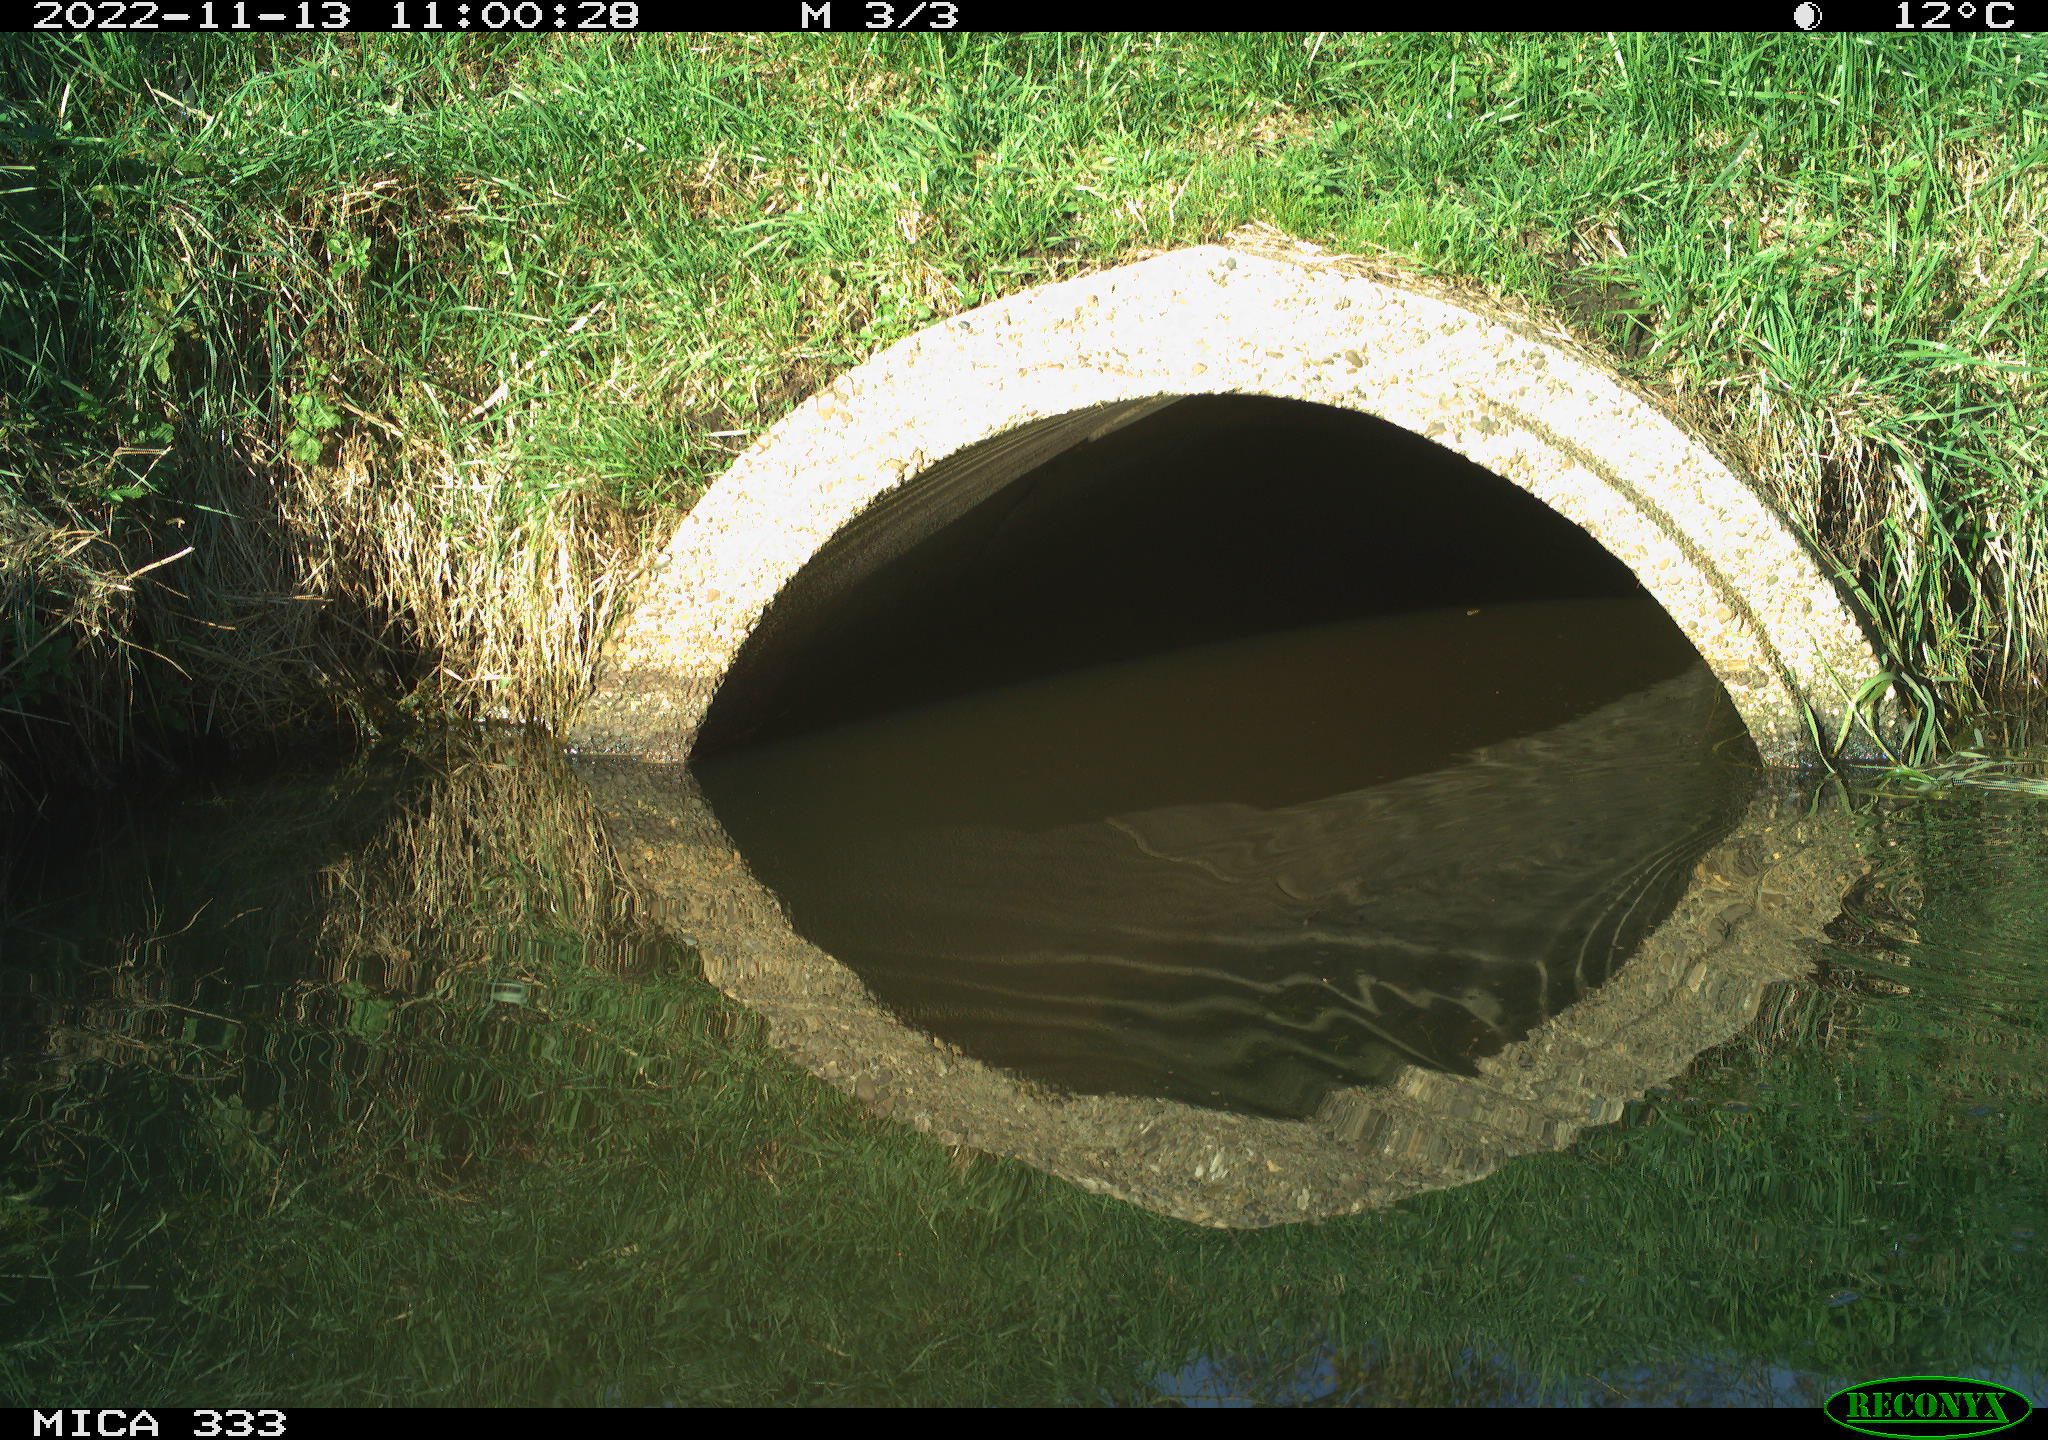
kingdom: Animalia
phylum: Chordata
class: Aves
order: Gruiformes
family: Rallidae
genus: Gallinula
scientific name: Gallinula chloropus
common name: Common moorhen
